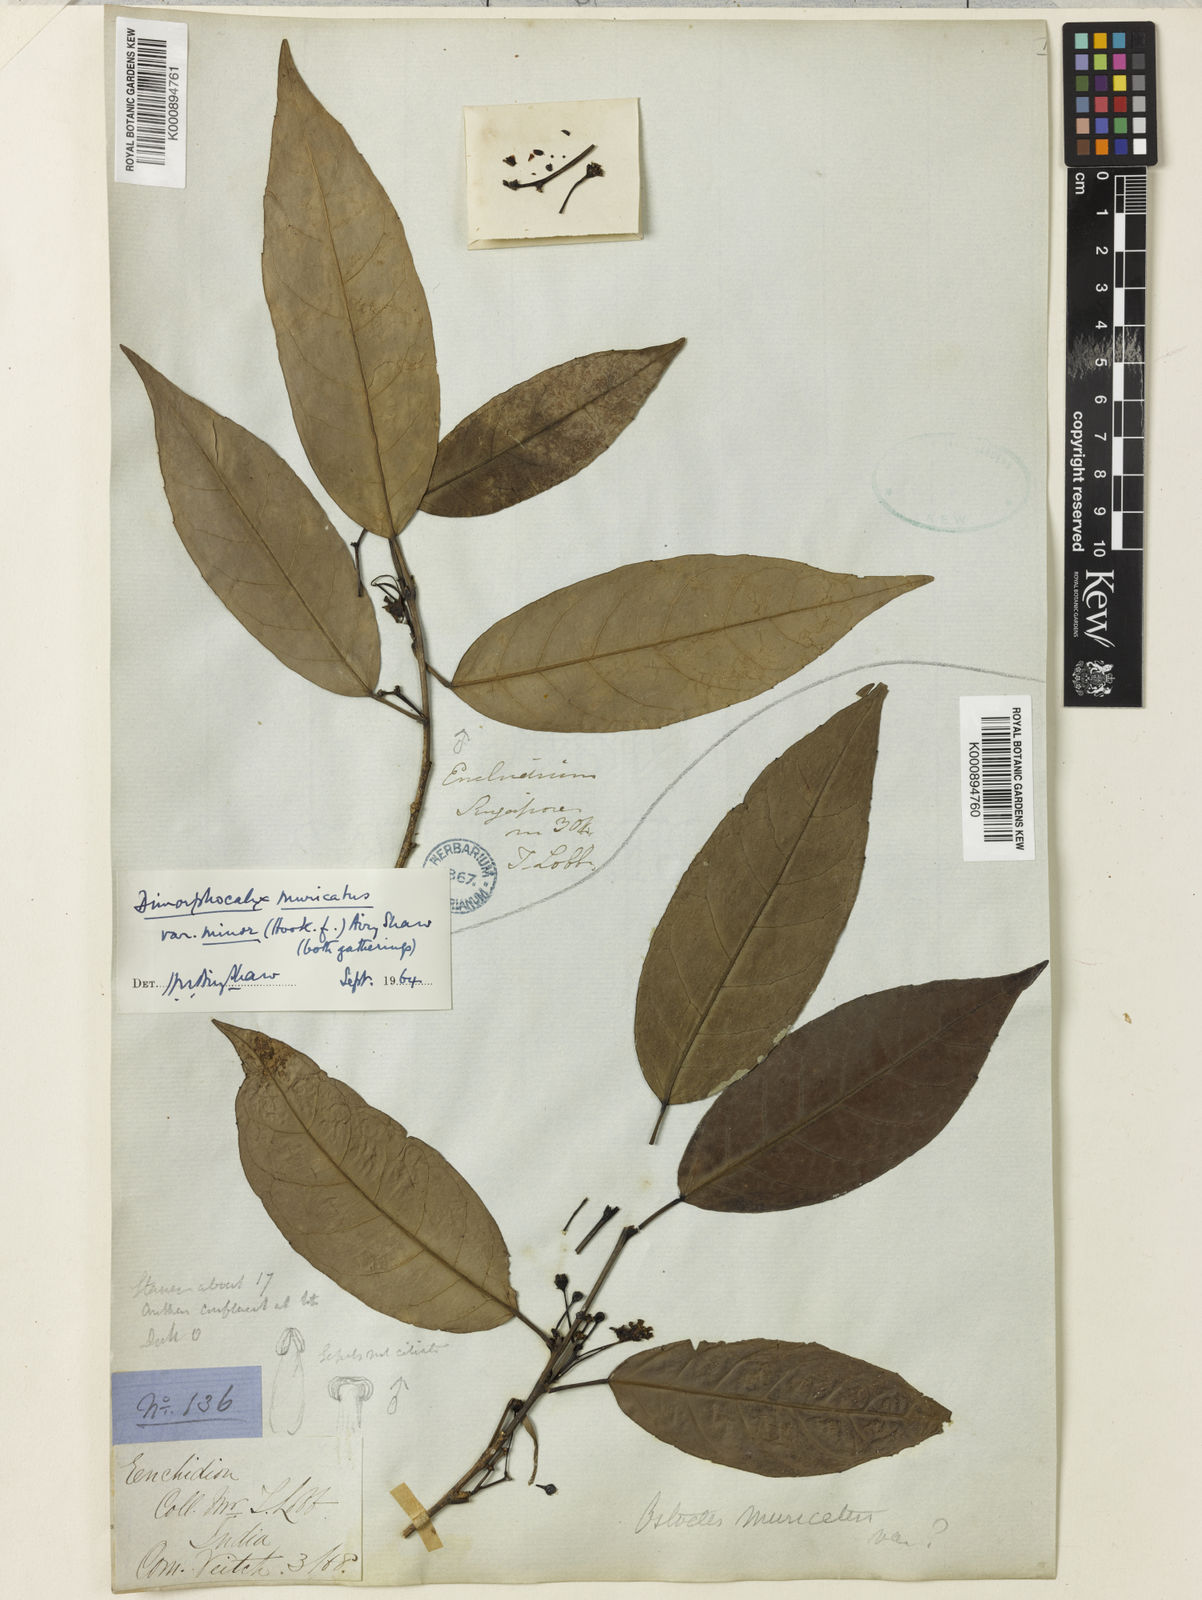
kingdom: Plantae
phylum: Tracheophyta
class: Magnoliopsida
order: Malpighiales
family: Euphorbiaceae
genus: Tritaxis
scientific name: Tritaxis muricata
